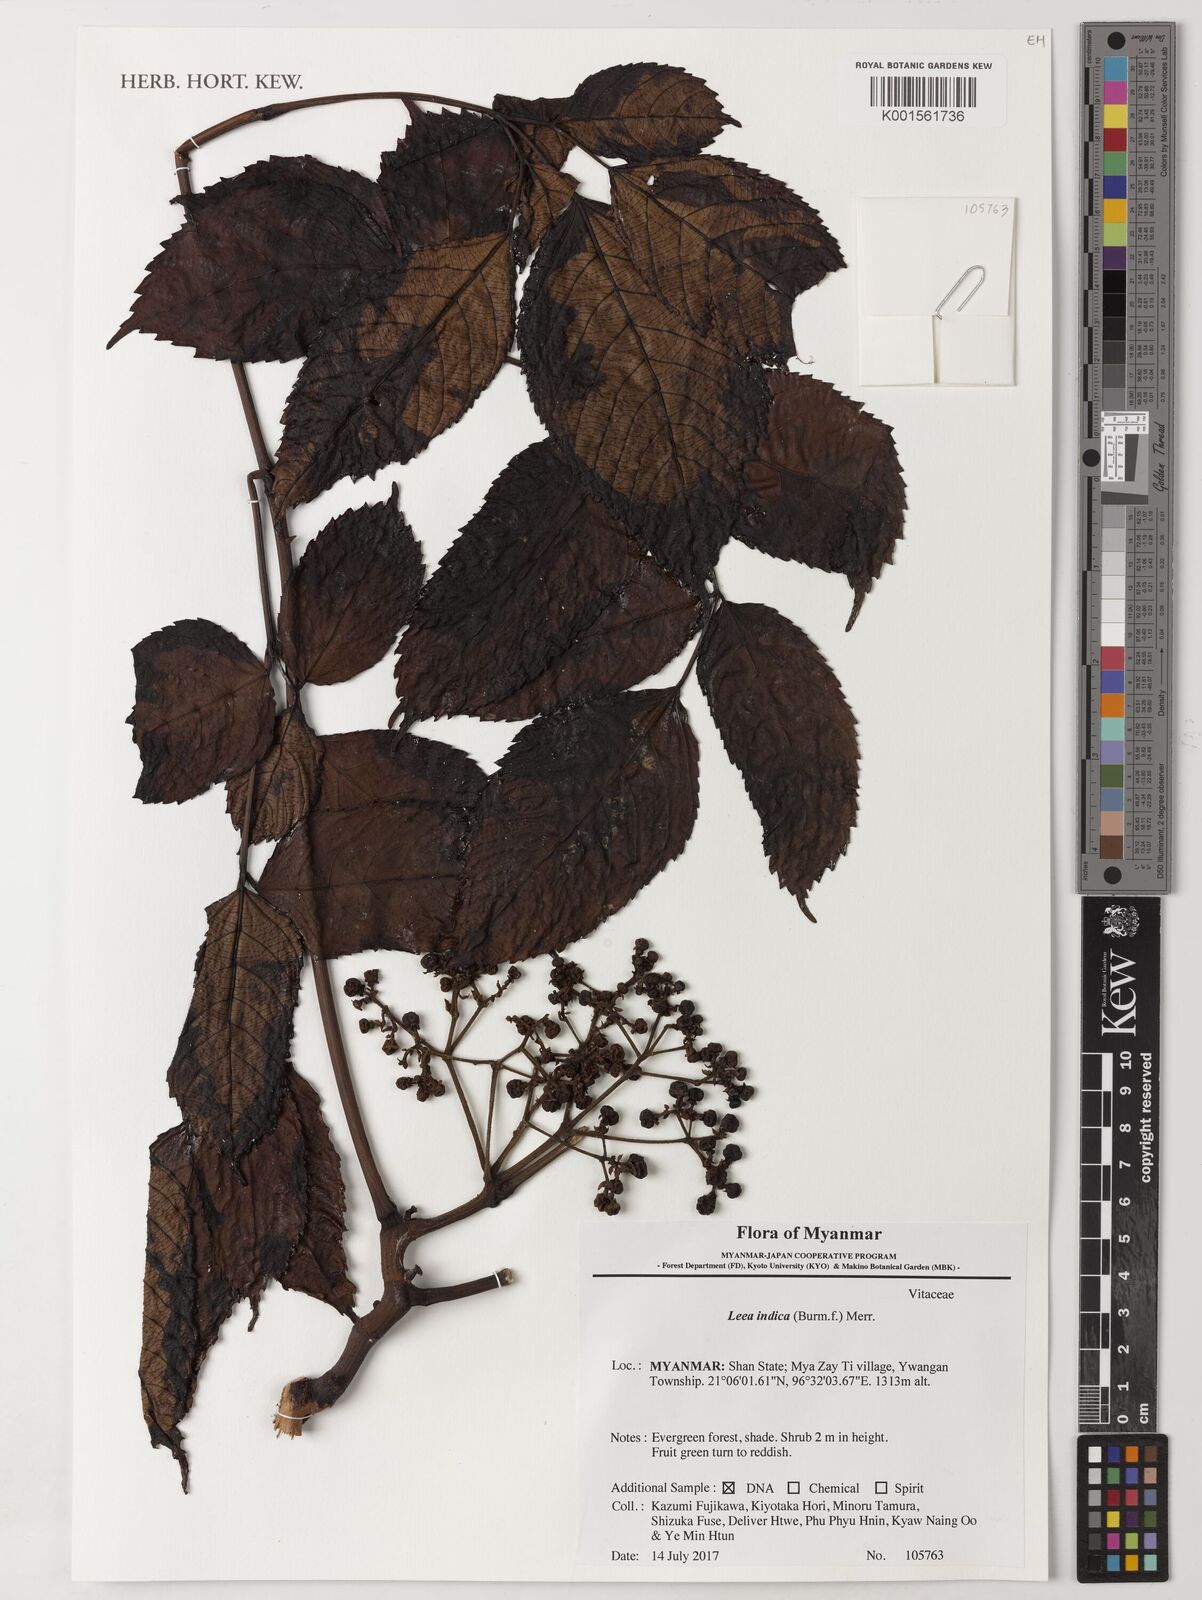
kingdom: Plantae
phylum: Tracheophyta
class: Magnoliopsida
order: Vitales
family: Vitaceae
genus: Leea
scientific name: Leea indica
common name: Bandicoot-berry
